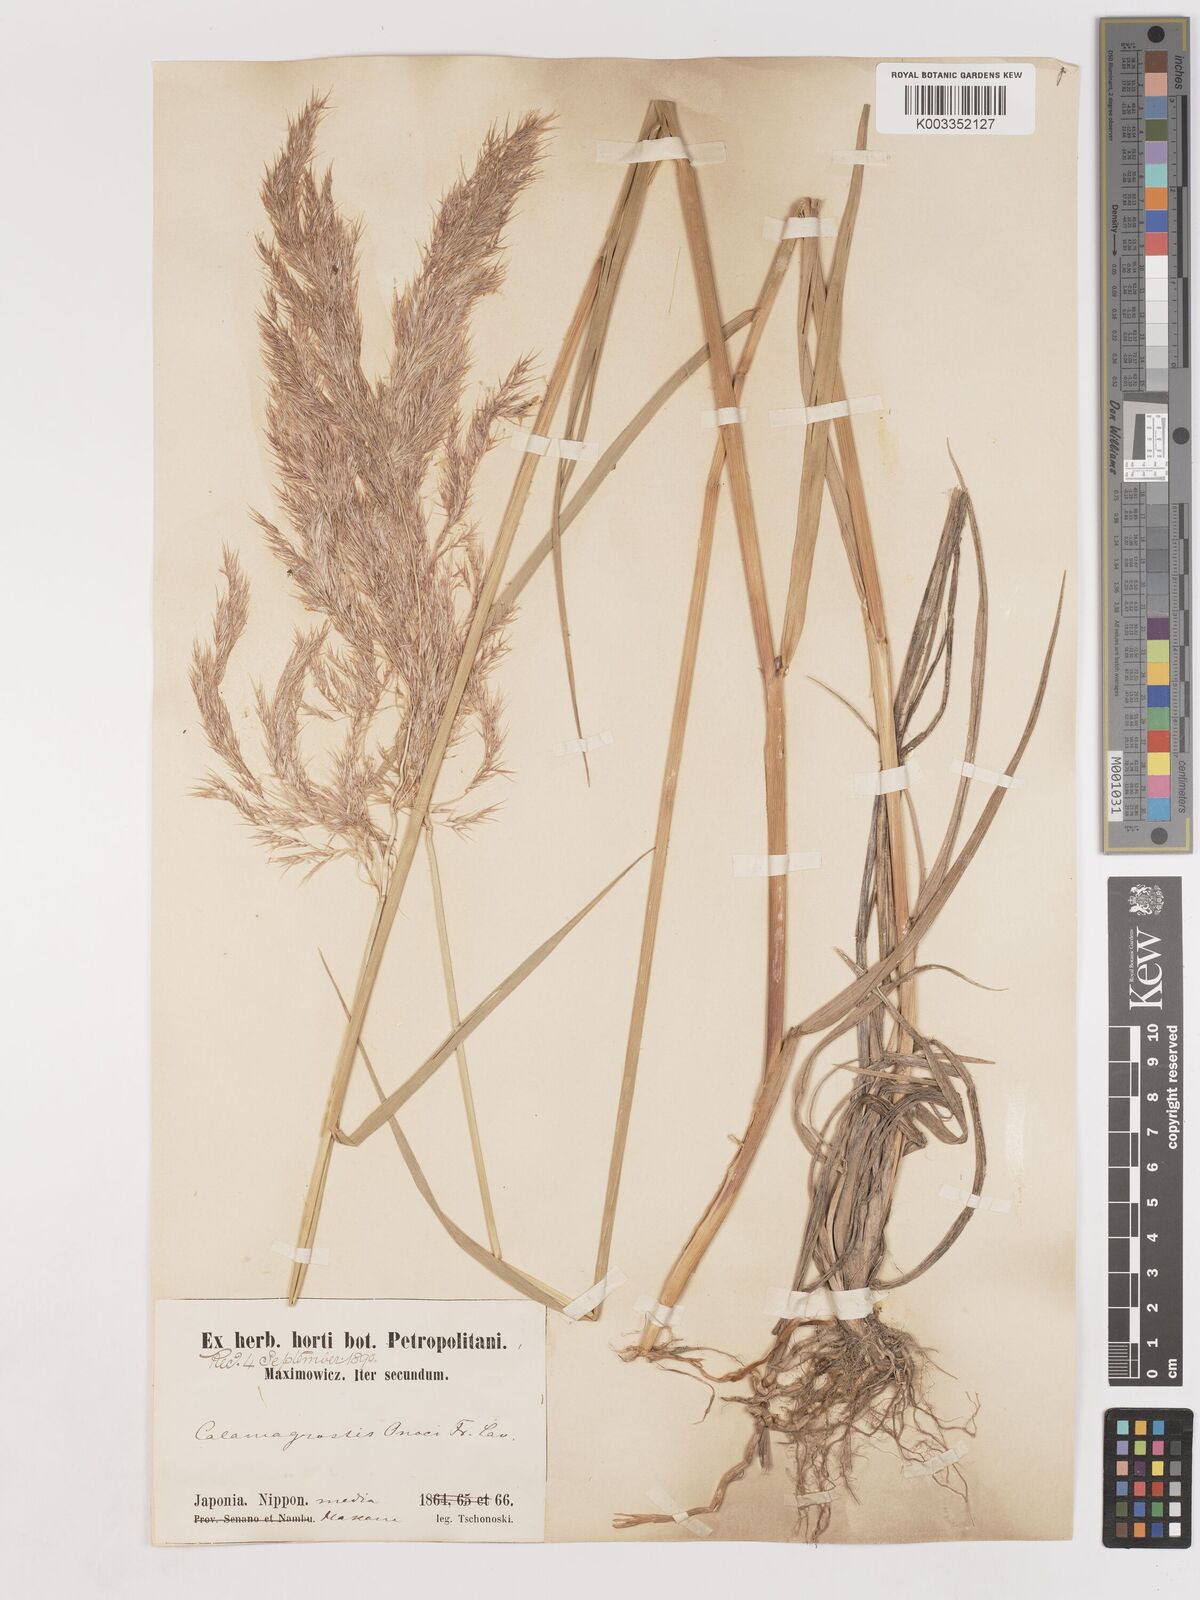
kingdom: Plantae
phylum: Tracheophyta
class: Liliopsida
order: Poales
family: Poaceae
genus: Calamagrostis
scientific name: Calamagrostis pseudophragmites
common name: Coastal small-reed
